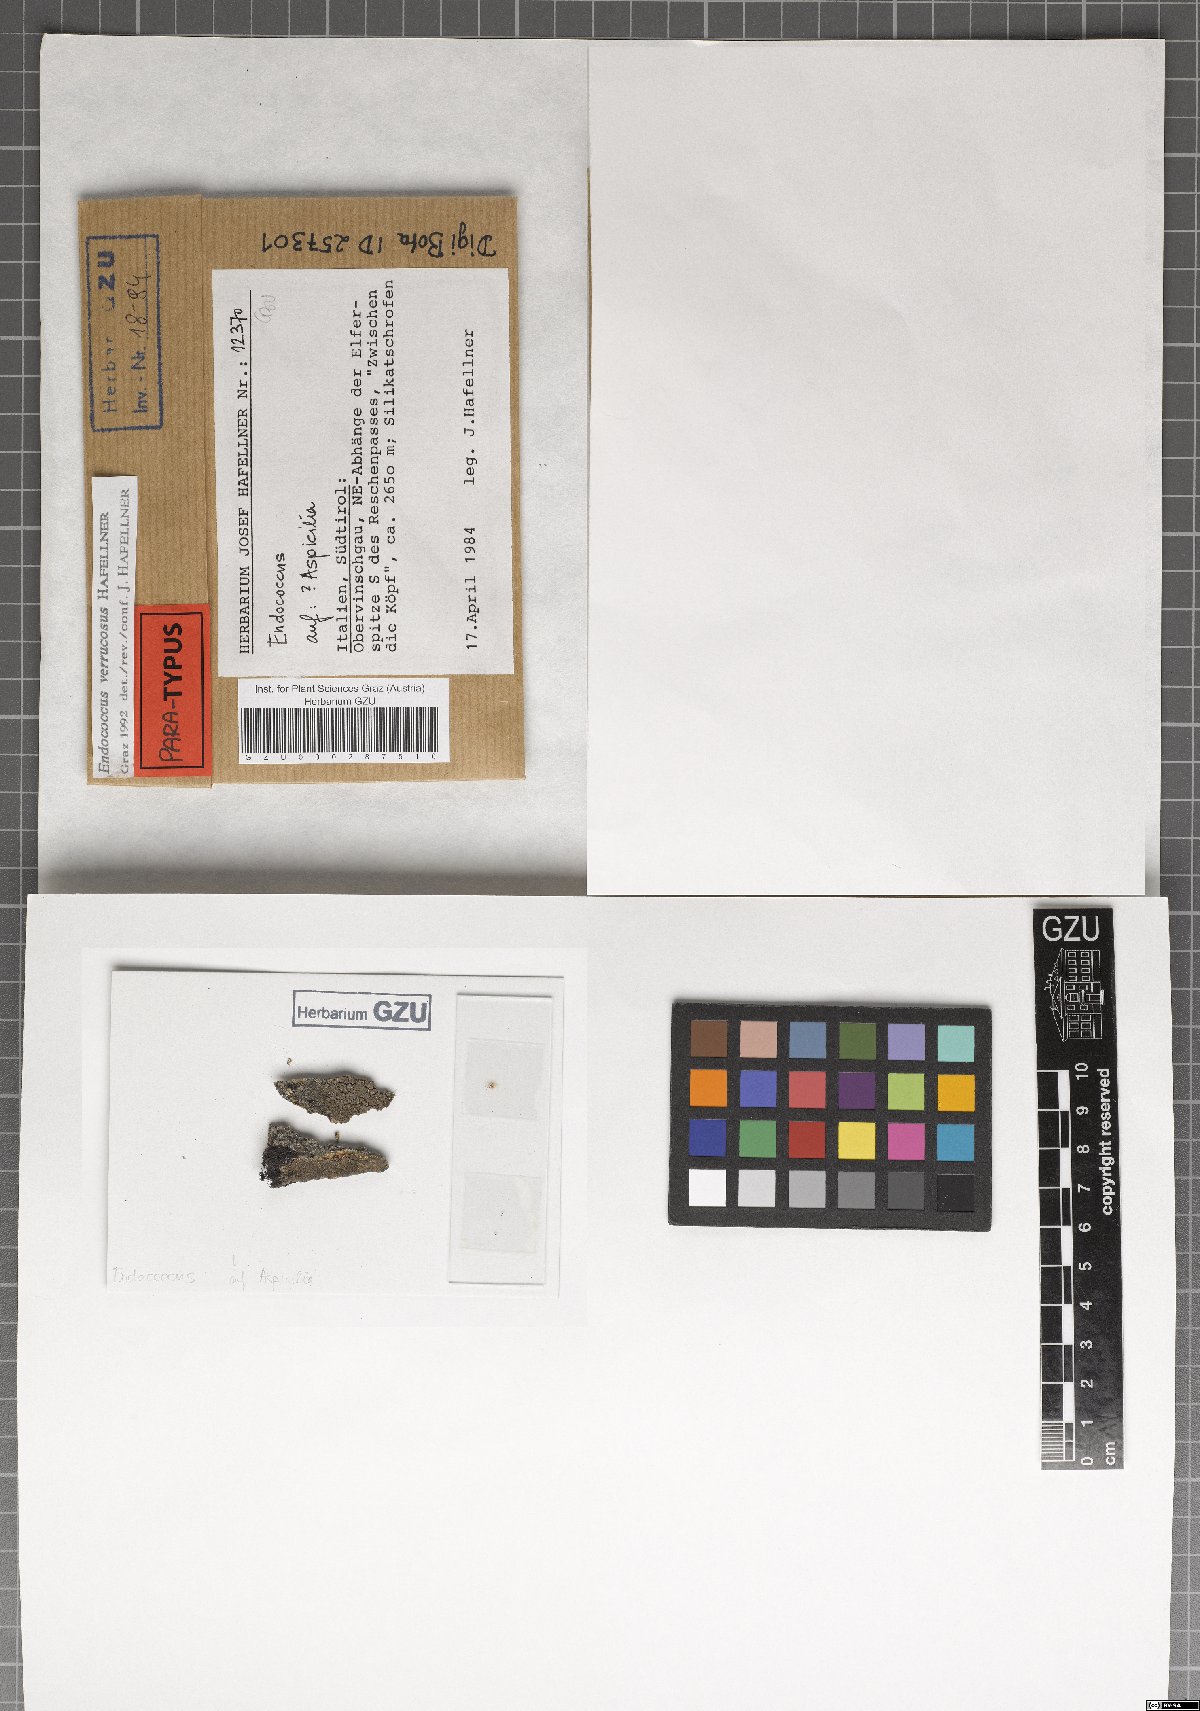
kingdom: Fungi
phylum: Ascomycota
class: Dothideomycetes
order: Dothideales
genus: Endococcus
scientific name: Endococcus verrucosus
